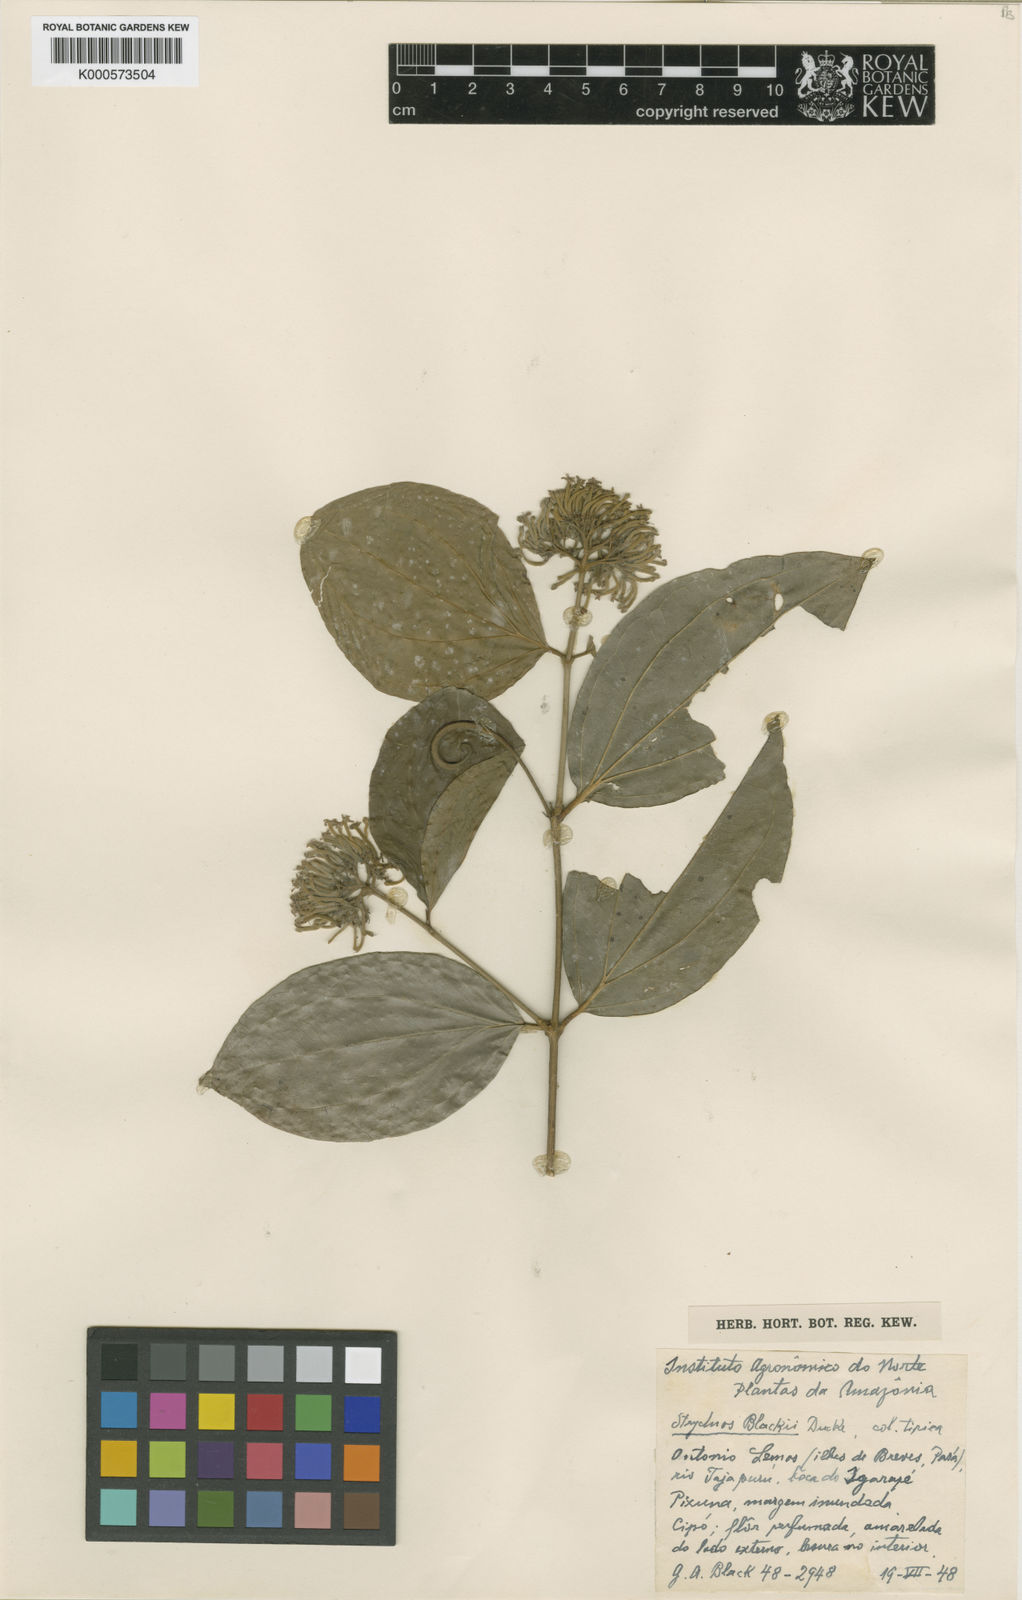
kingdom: Plantae
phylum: Tracheophyta
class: Magnoliopsida
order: Gentianales
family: Loganiaceae
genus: Strychnos
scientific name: Strychnos brachiata
